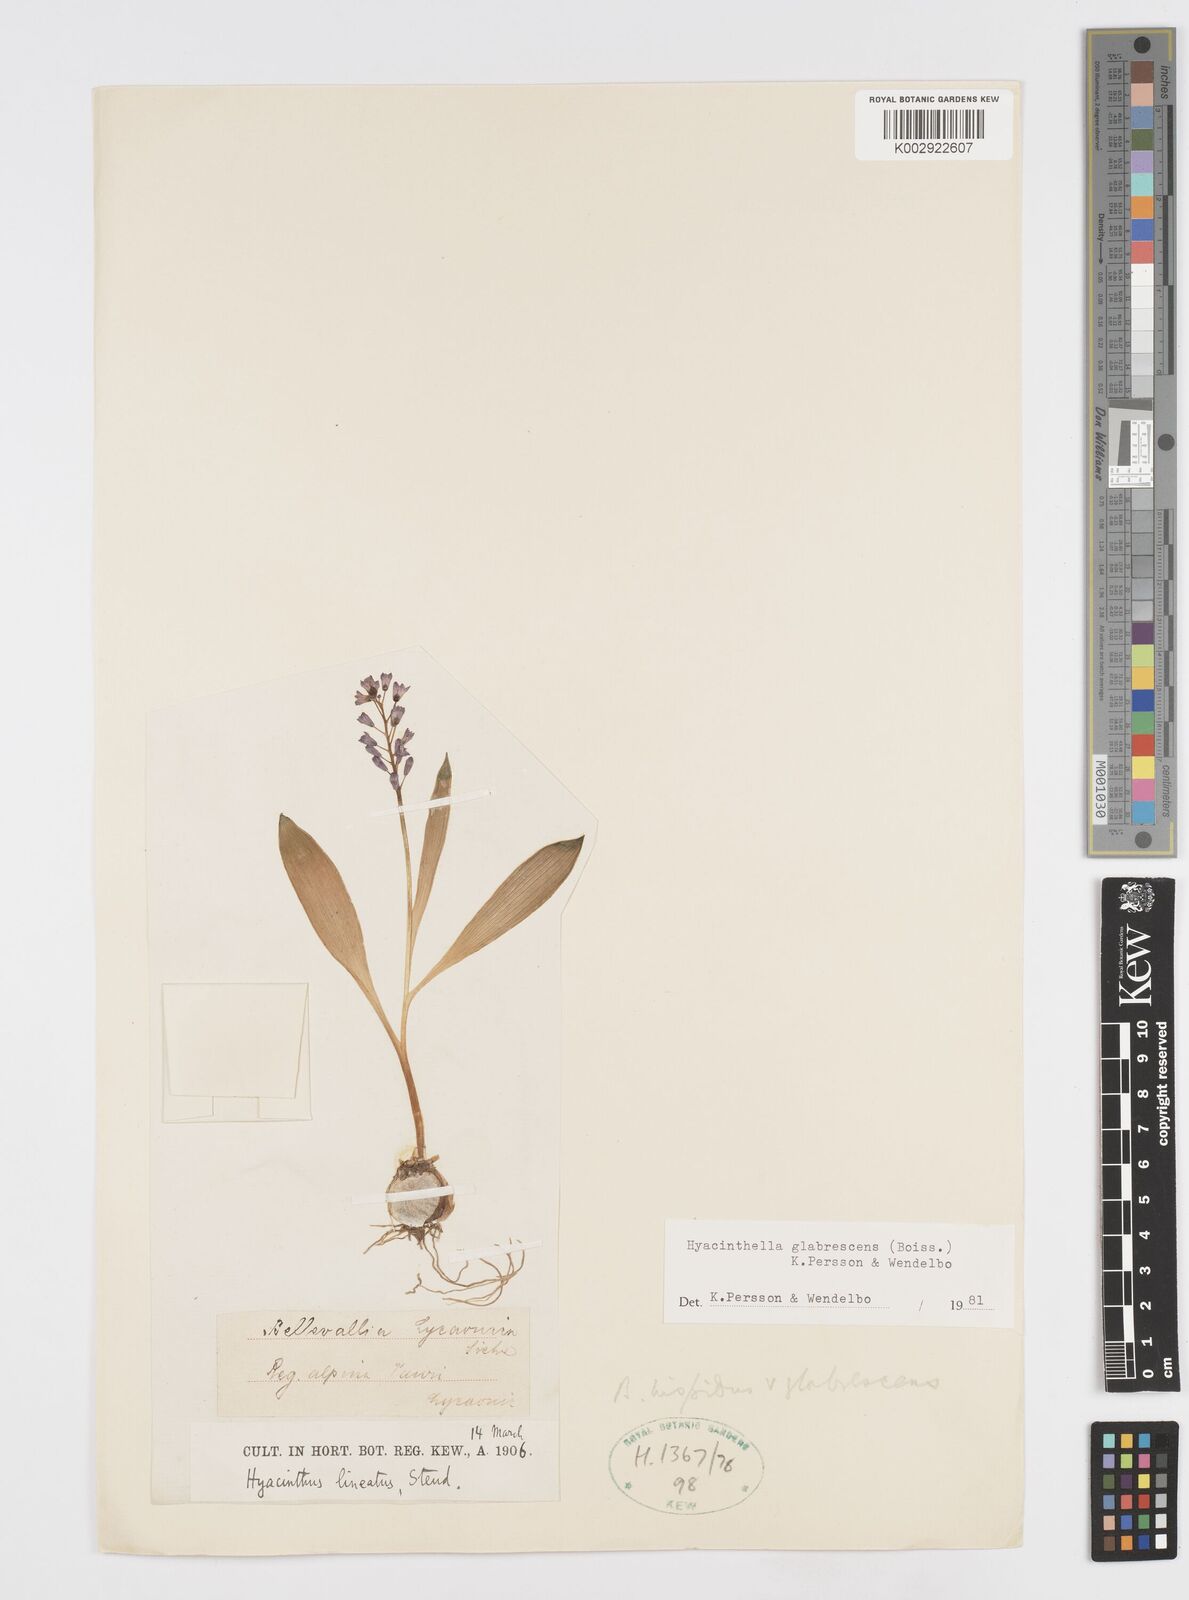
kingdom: Plantae
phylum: Tracheophyta
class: Liliopsida
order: Asparagales
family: Asparagaceae
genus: Hyacinthella
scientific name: Hyacinthella glabrescens
